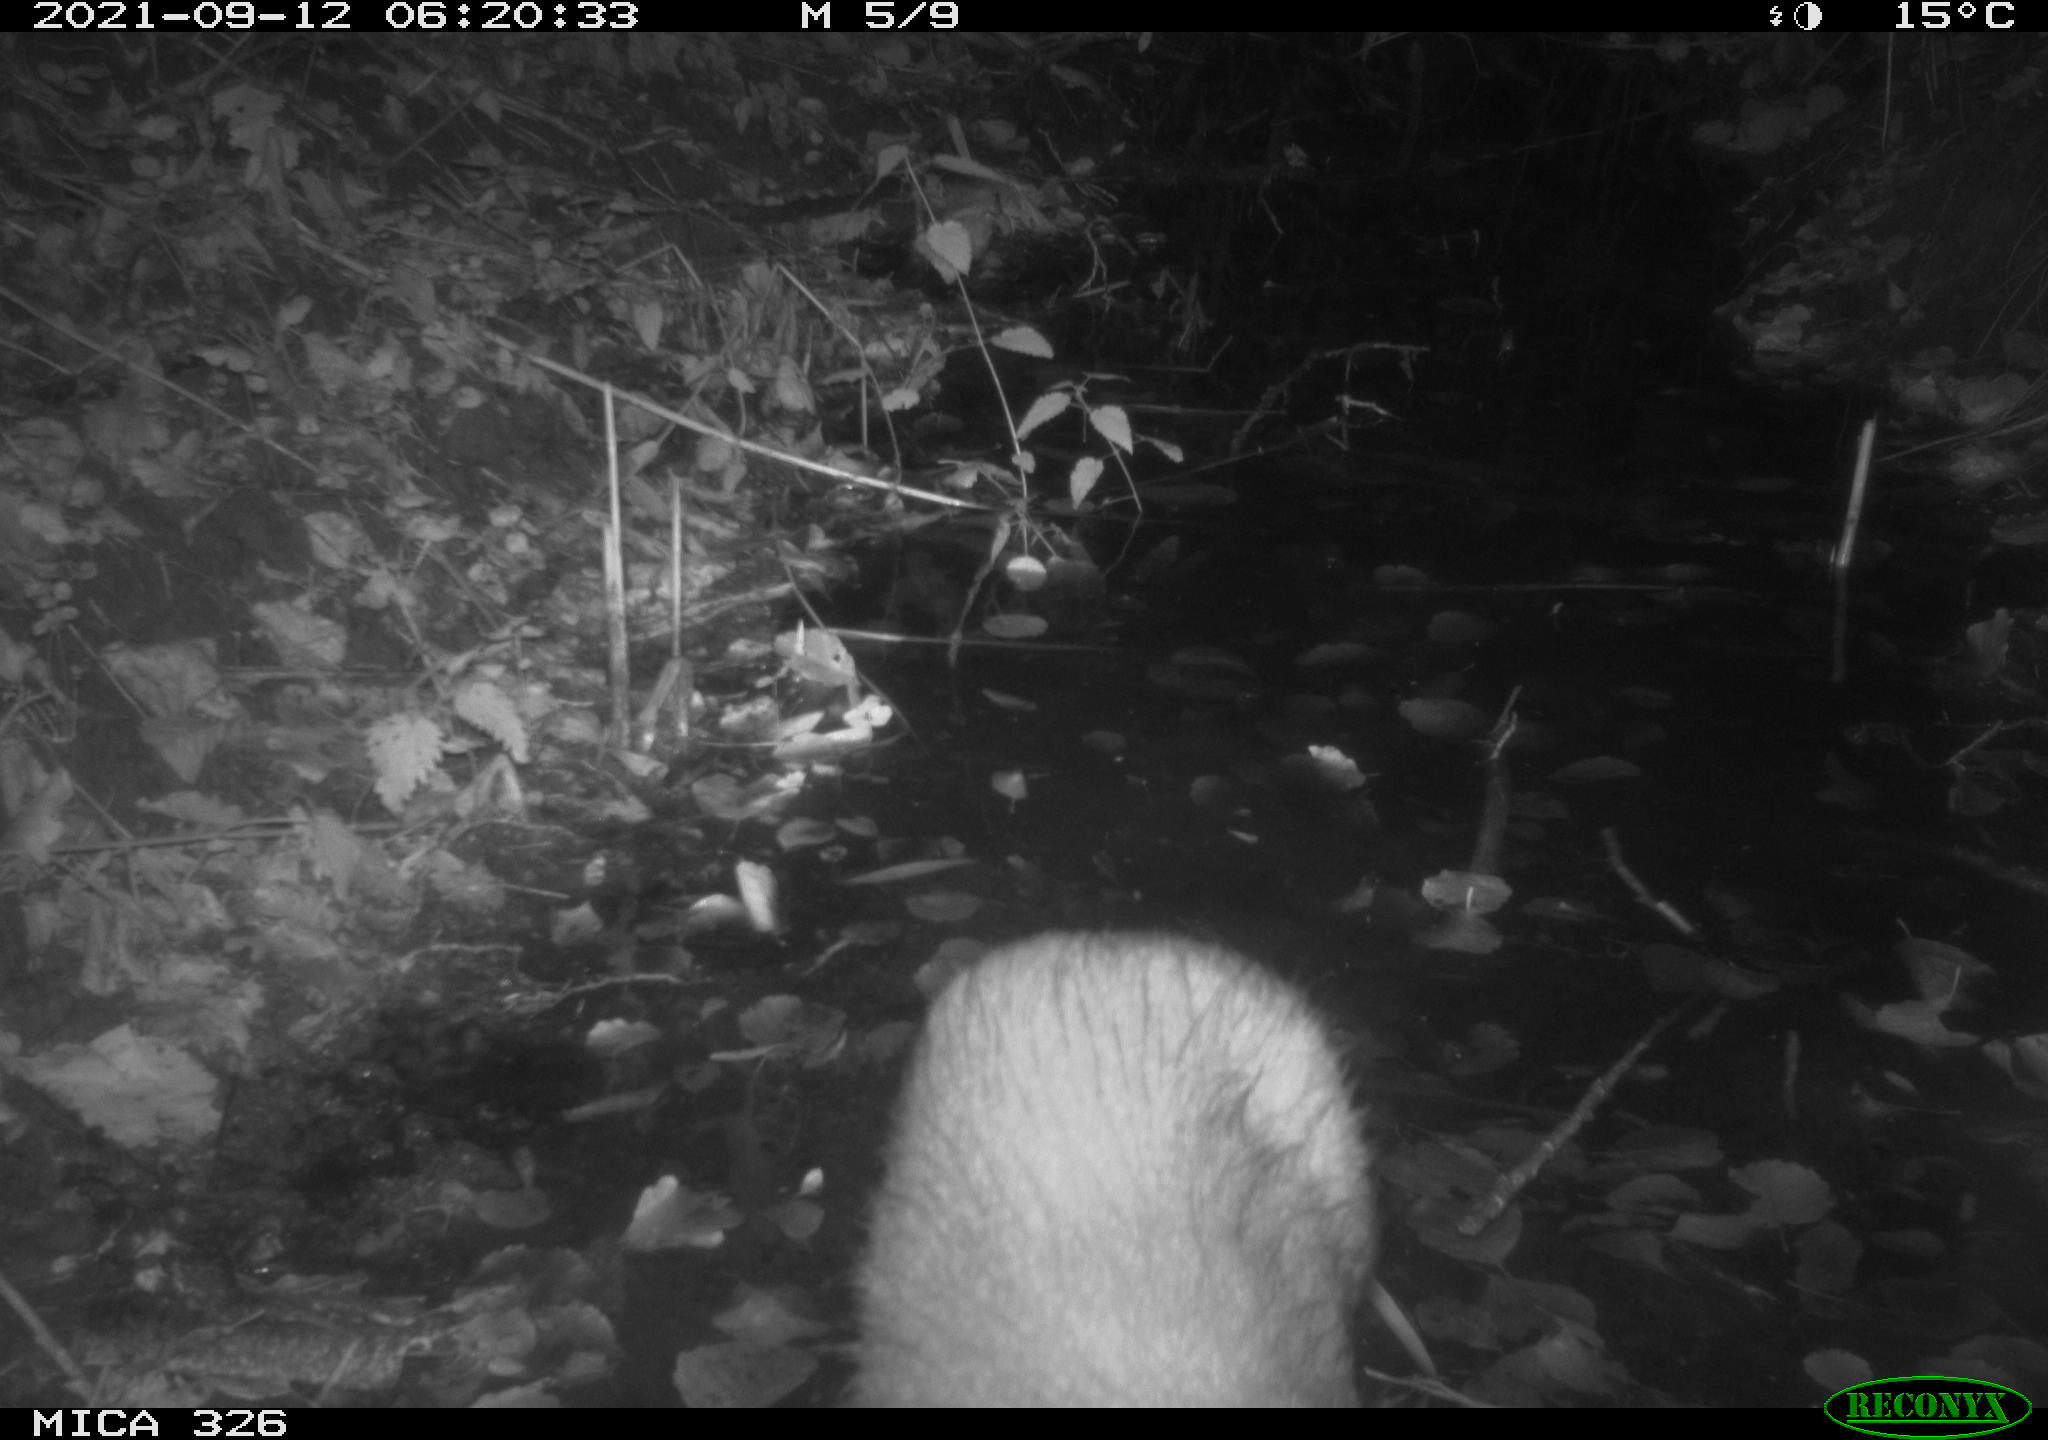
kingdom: Animalia
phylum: Chordata
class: Mammalia
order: Rodentia
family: Myocastoridae
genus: Myocastor
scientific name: Myocastor coypus
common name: Coypu
